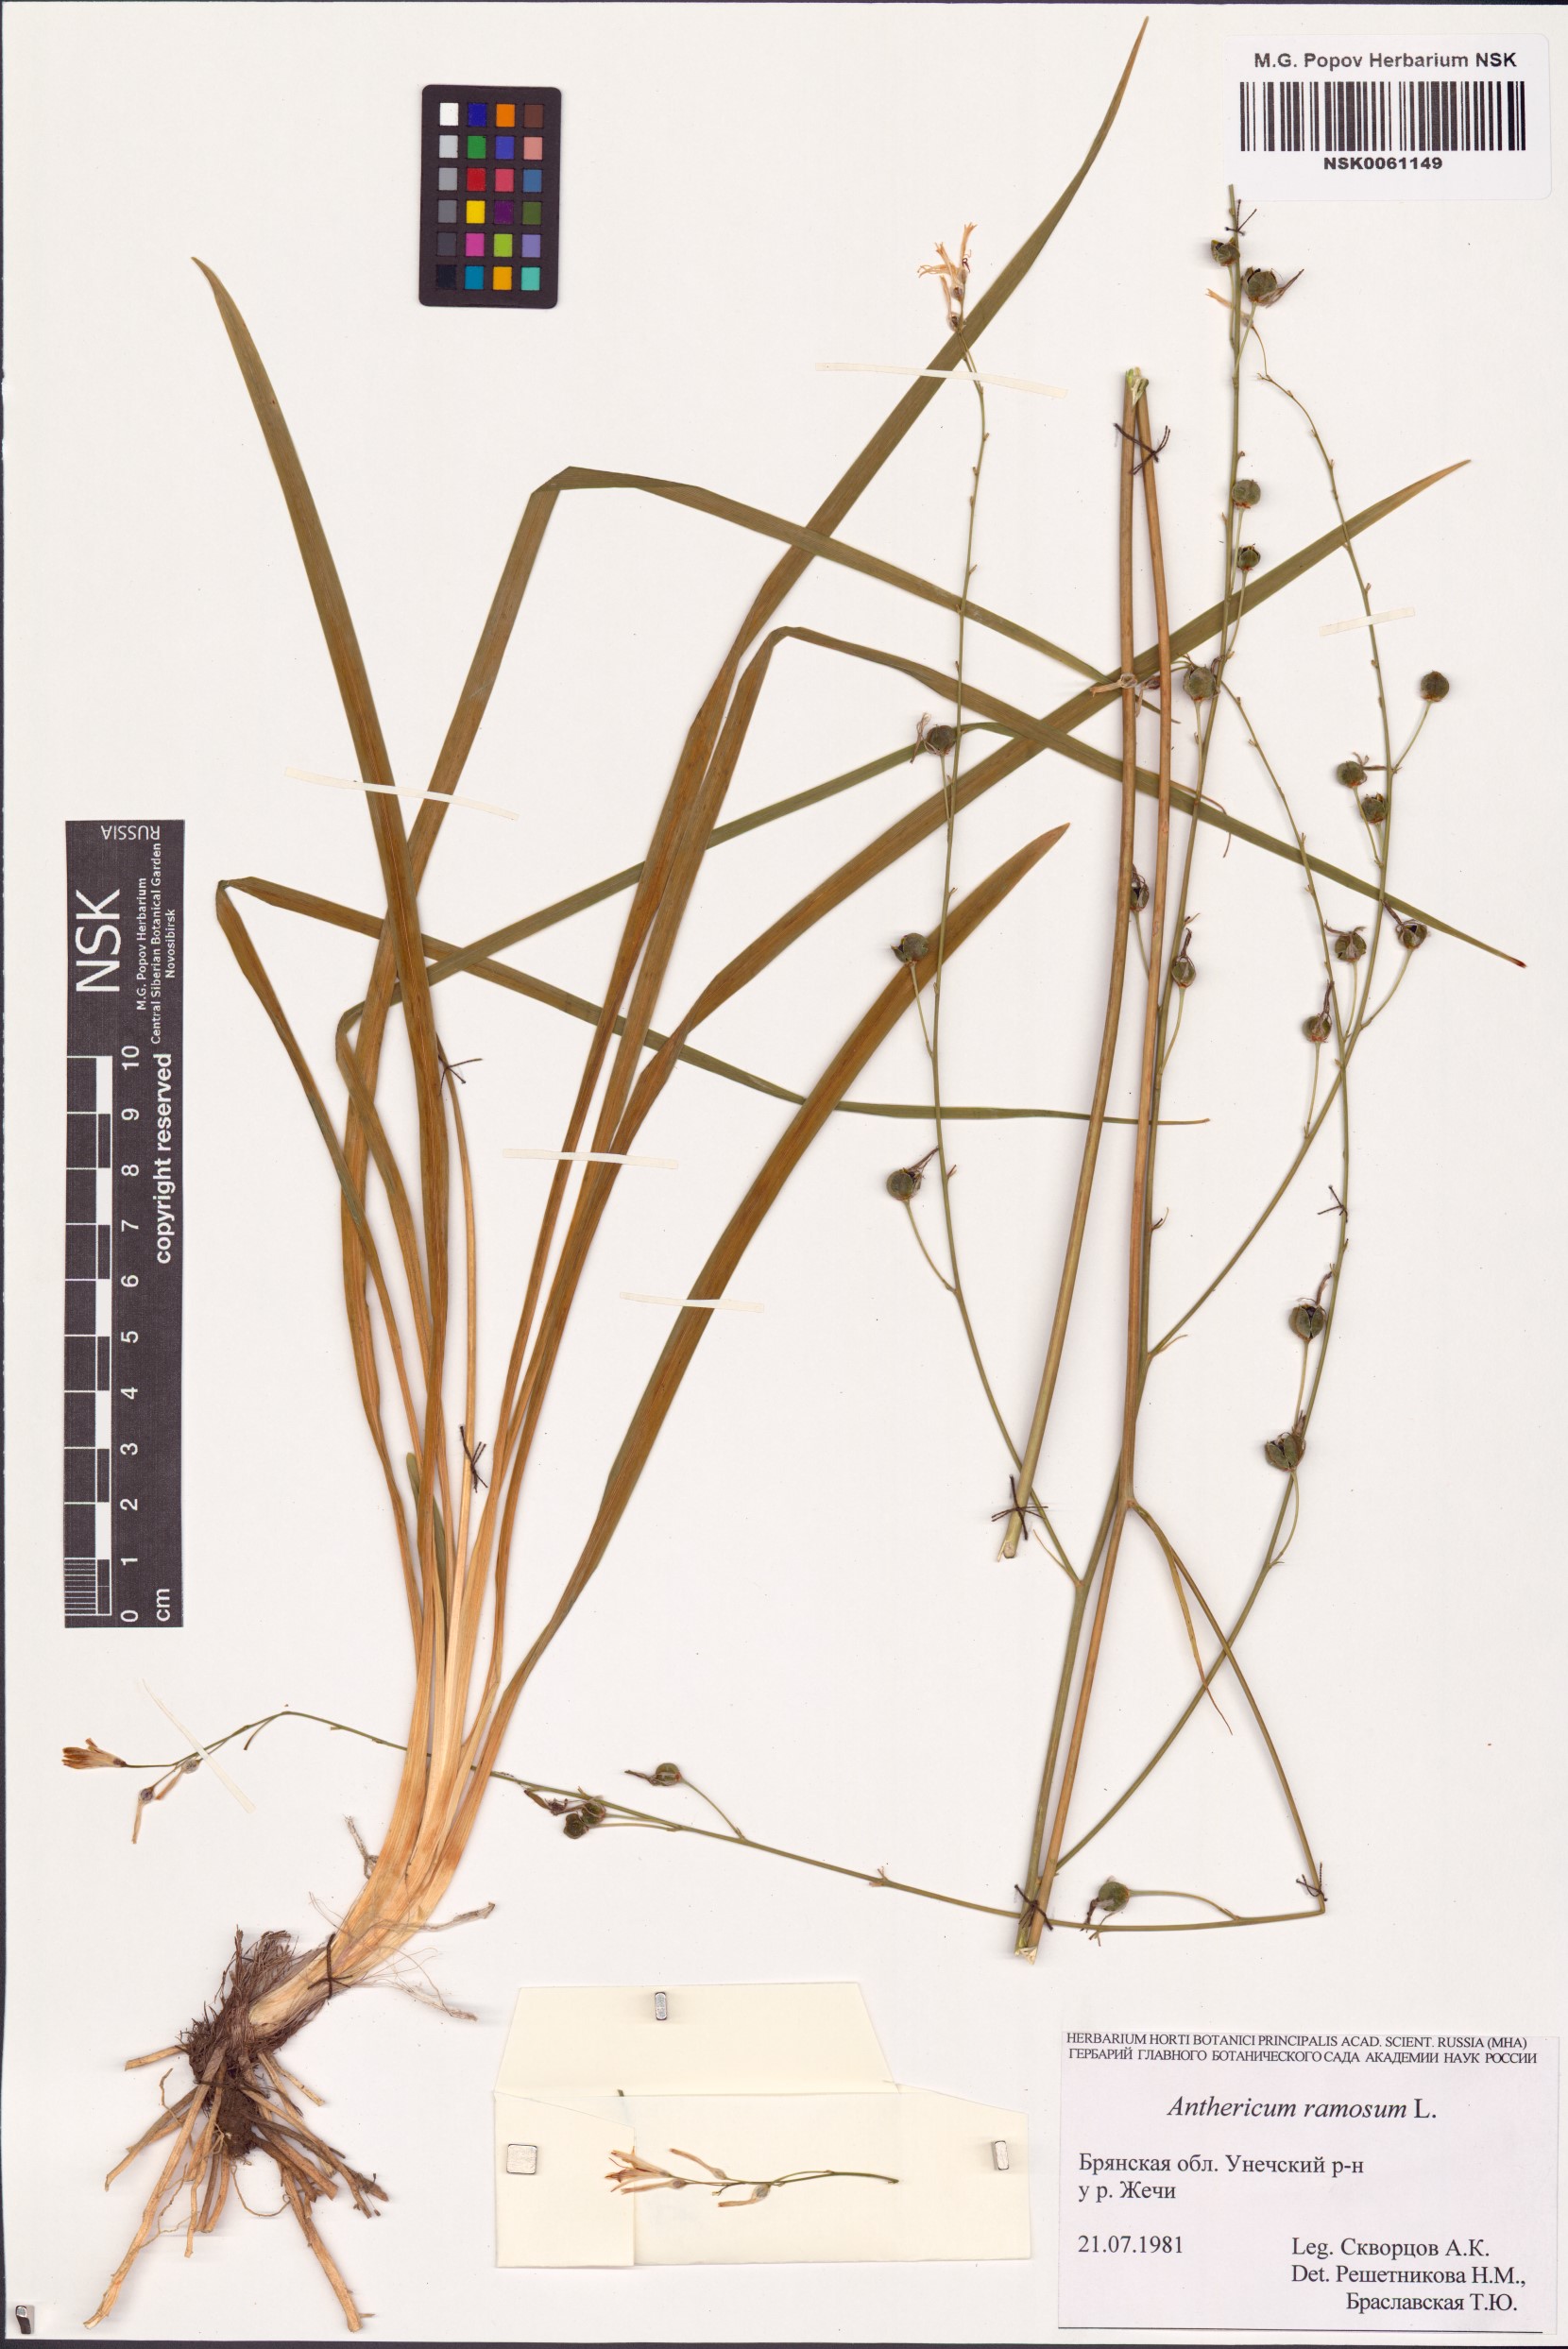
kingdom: Plantae
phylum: Tracheophyta
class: Liliopsida
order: Asparagales
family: Asparagaceae
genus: Anthericum
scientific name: Anthericum ramosum
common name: Branched st. bernard's-lily
